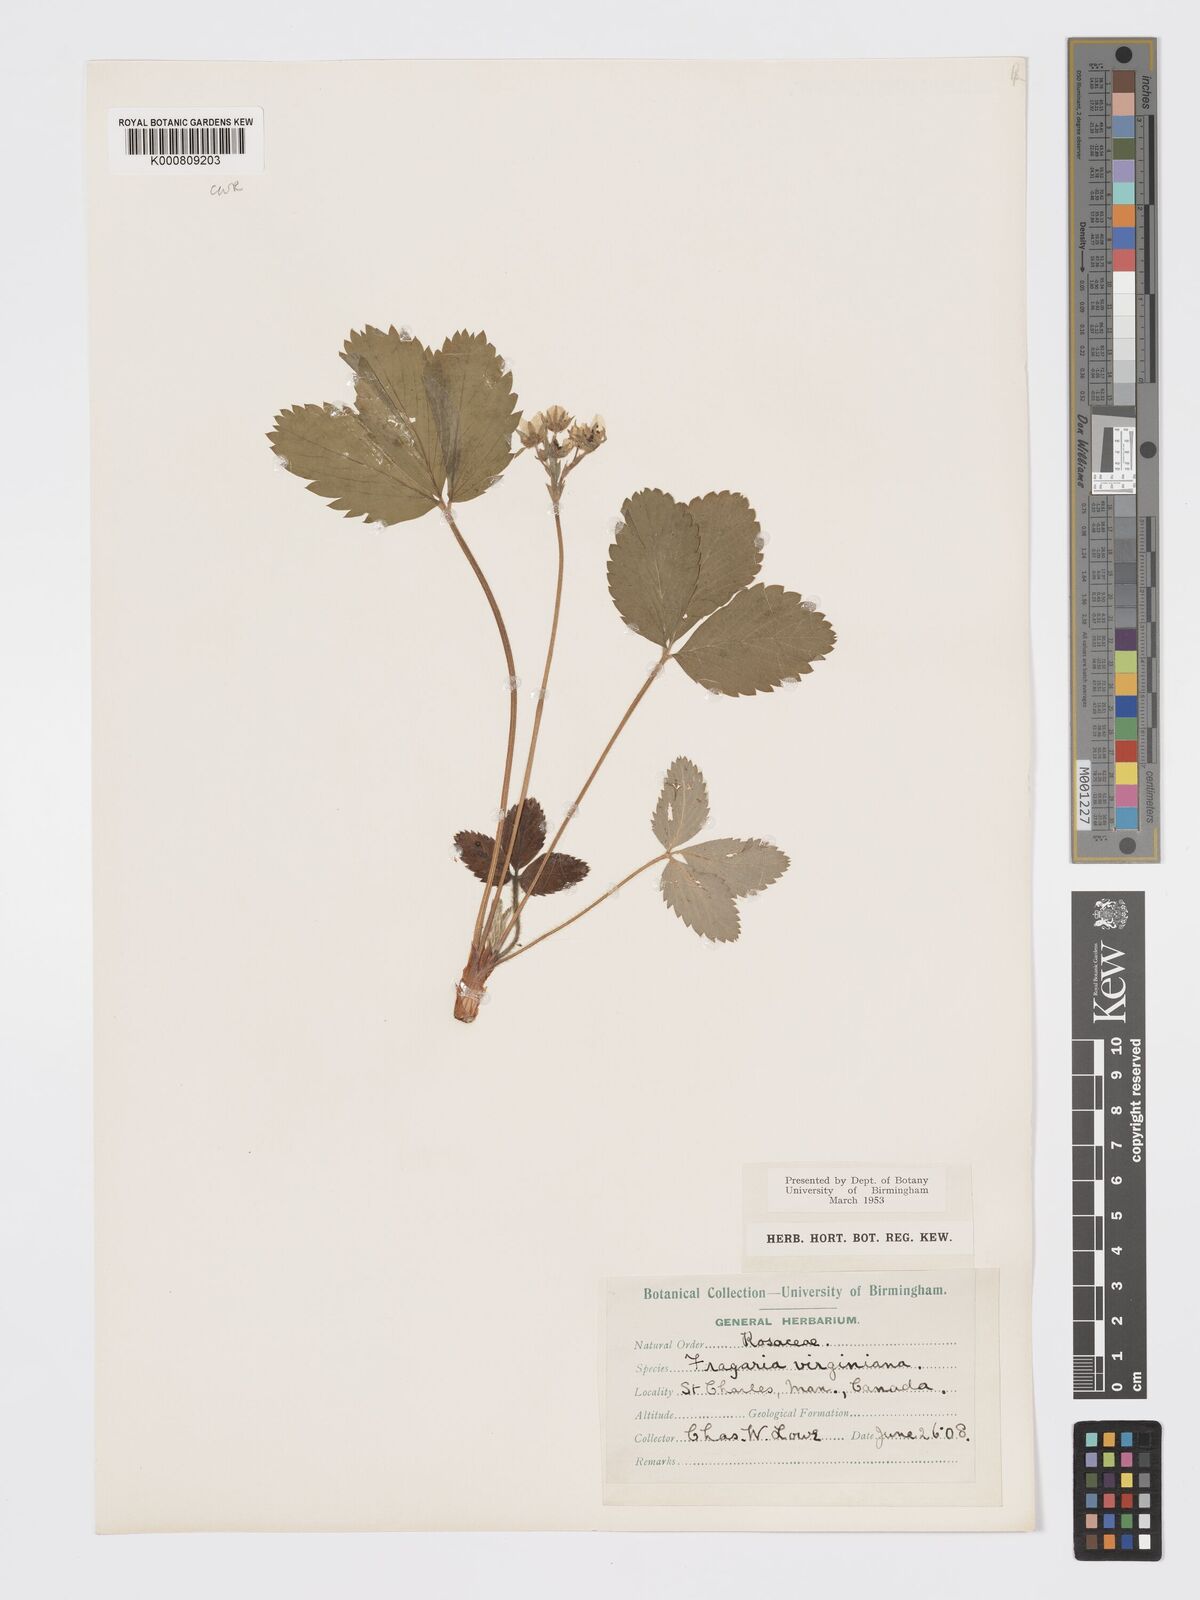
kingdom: Plantae
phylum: Tracheophyta
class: Magnoliopsida
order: Rosales
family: Rosaceae
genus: Fragaria
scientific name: Fragaria virginiana
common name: Thickleaved wild strawberry
